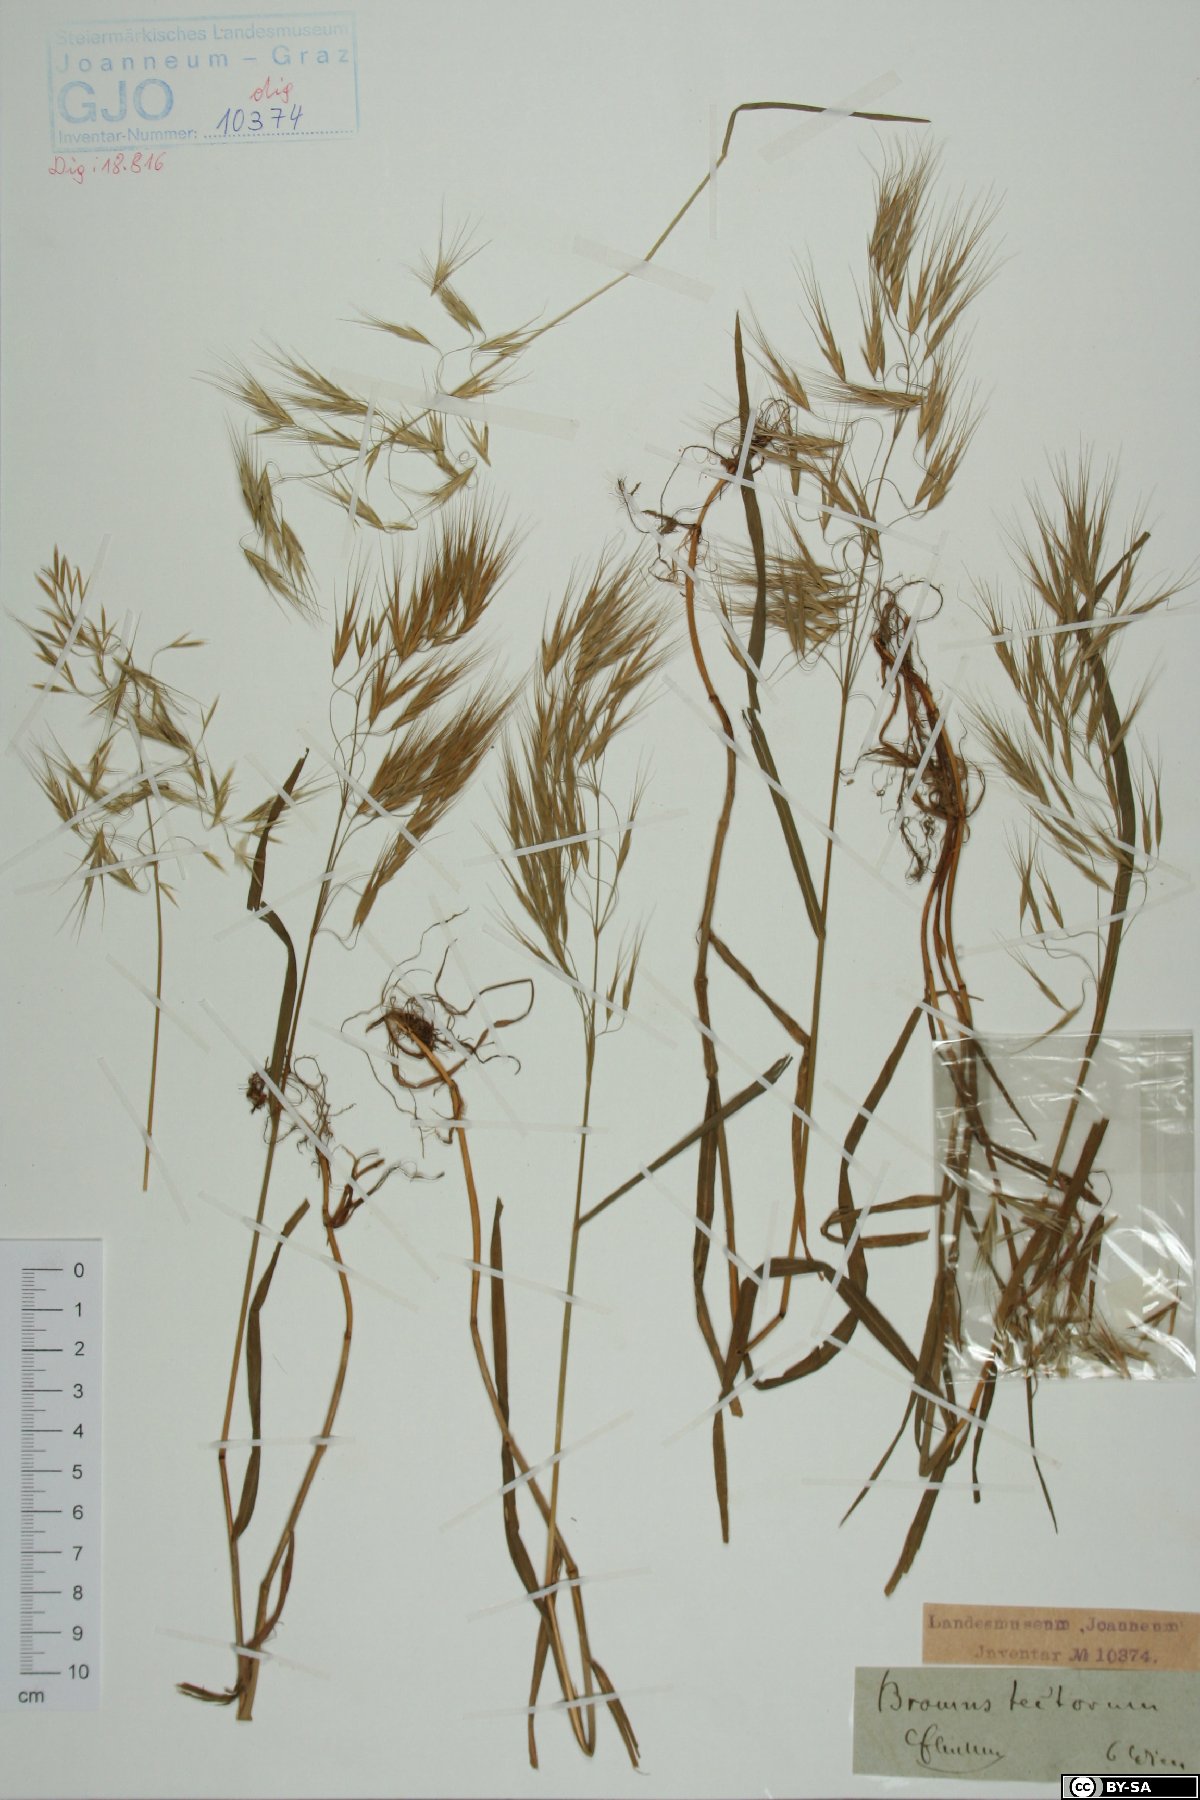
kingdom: Plantae
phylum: Tracheophyta
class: Liliopsida
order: Poales
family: Poaceae
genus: Bromus
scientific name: Bromus tectorum
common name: Cheatgrass
